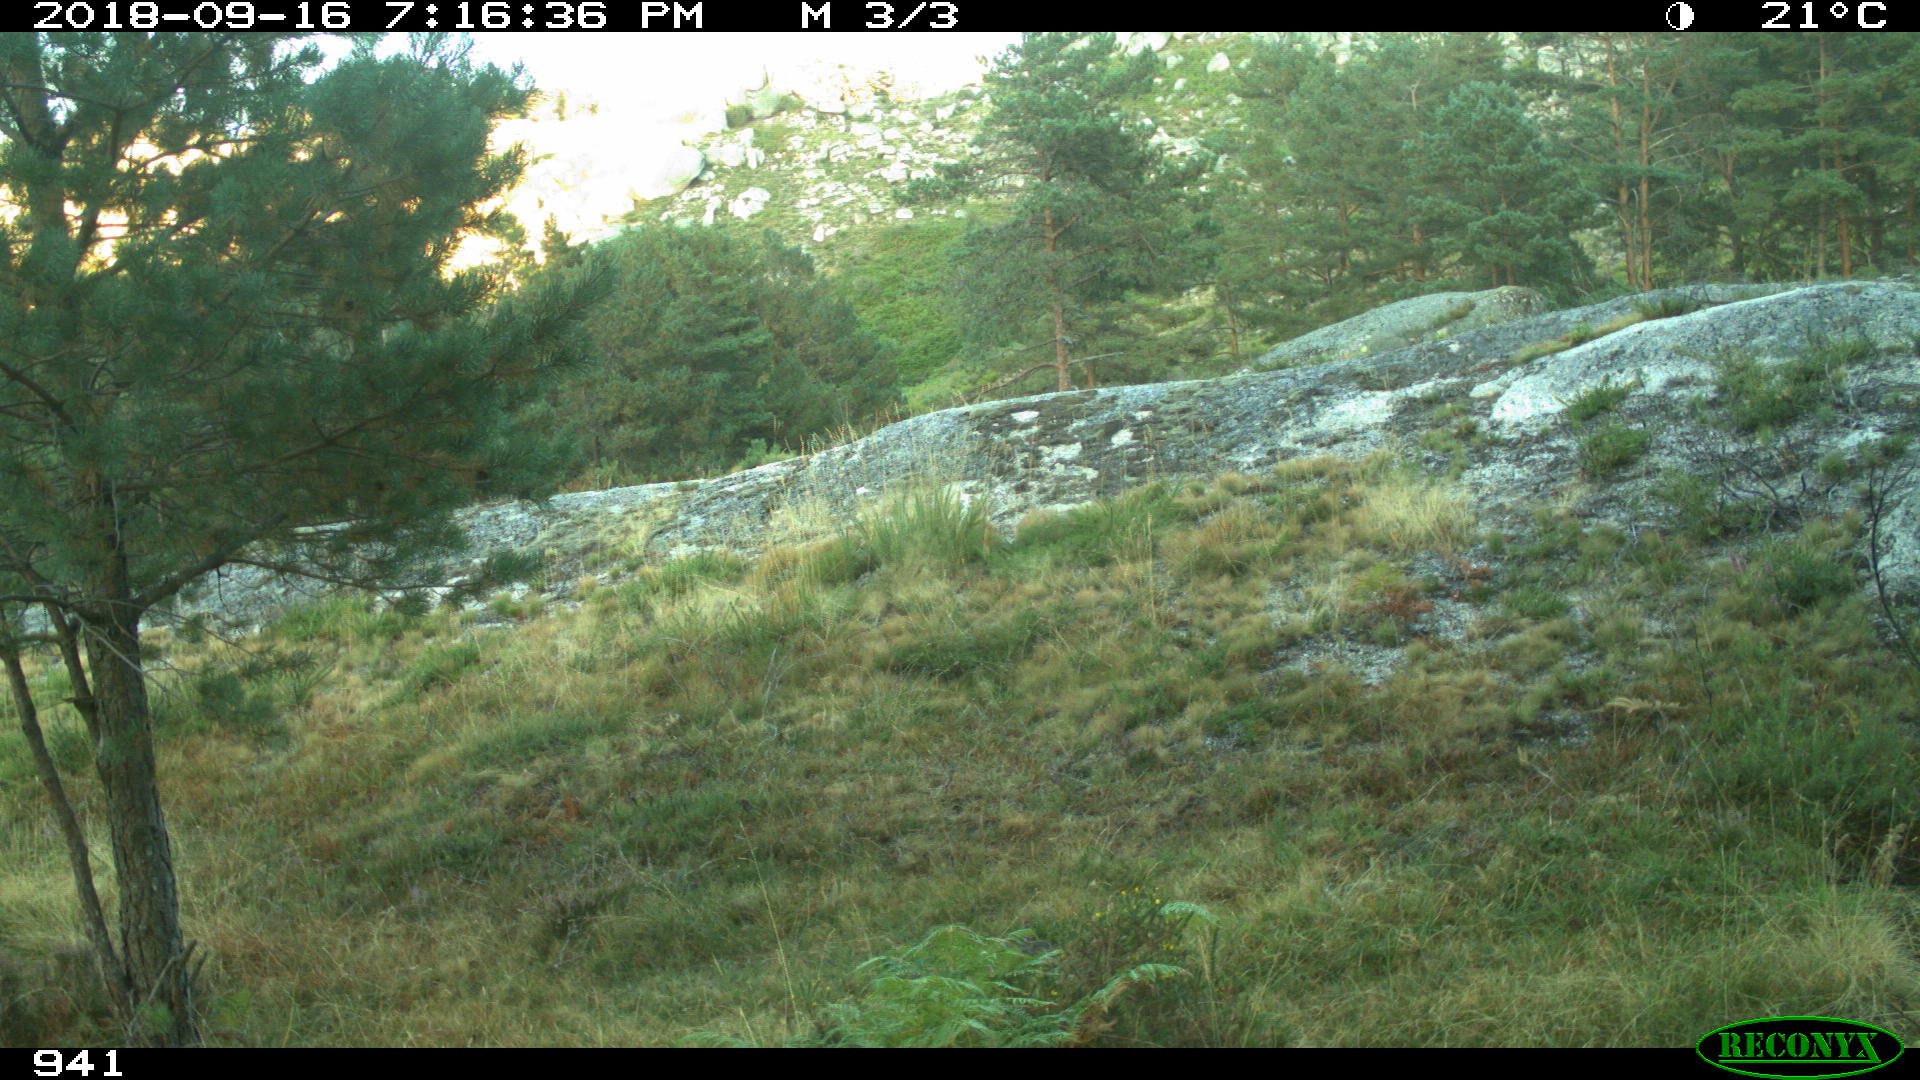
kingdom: Animalia
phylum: Chordata
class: Mammalia
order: Perissodactyla
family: Equidae
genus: Equus
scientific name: Equus caballus
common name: Horse
